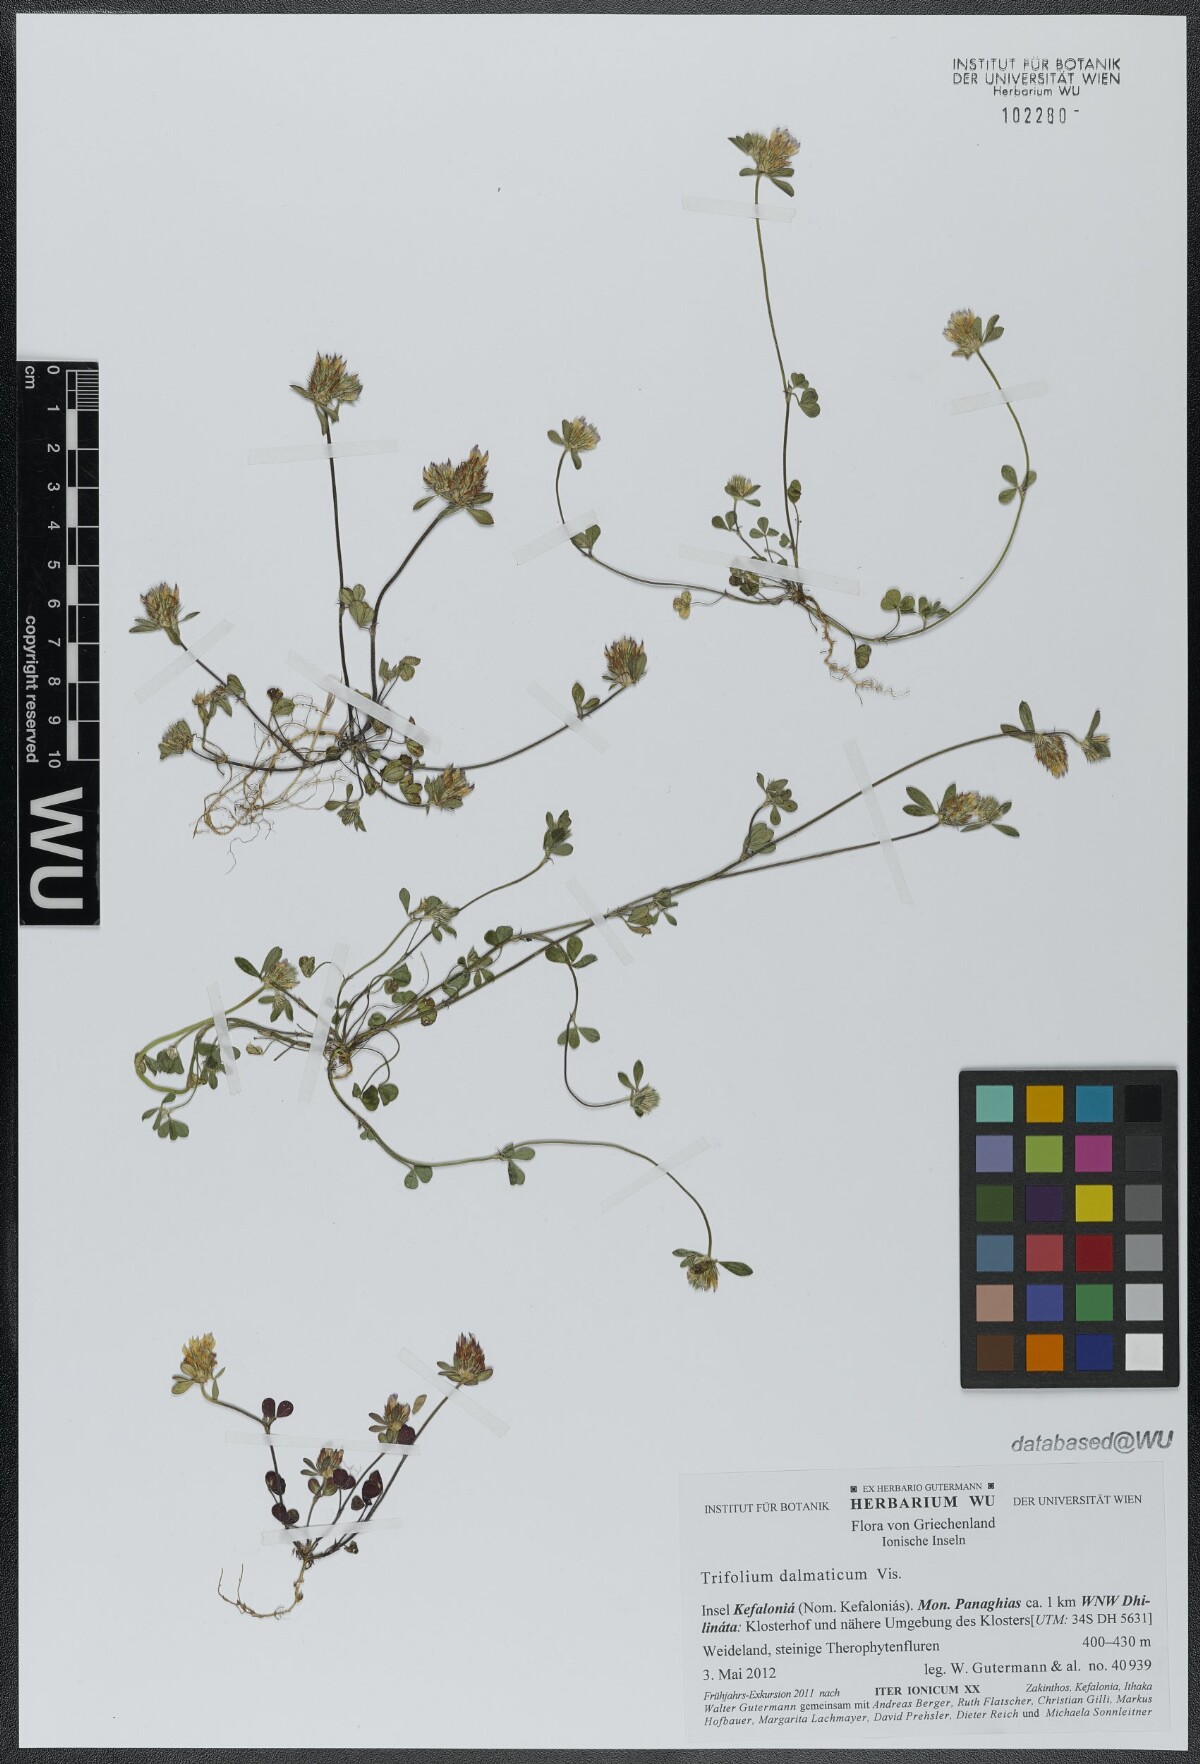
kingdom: Plantae
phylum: Tracheophyta
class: Magnoliopsida
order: Fabales
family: Fabaceae
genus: Trifolium
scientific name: Trifolium dalmaticum
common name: Dalmatian clover
